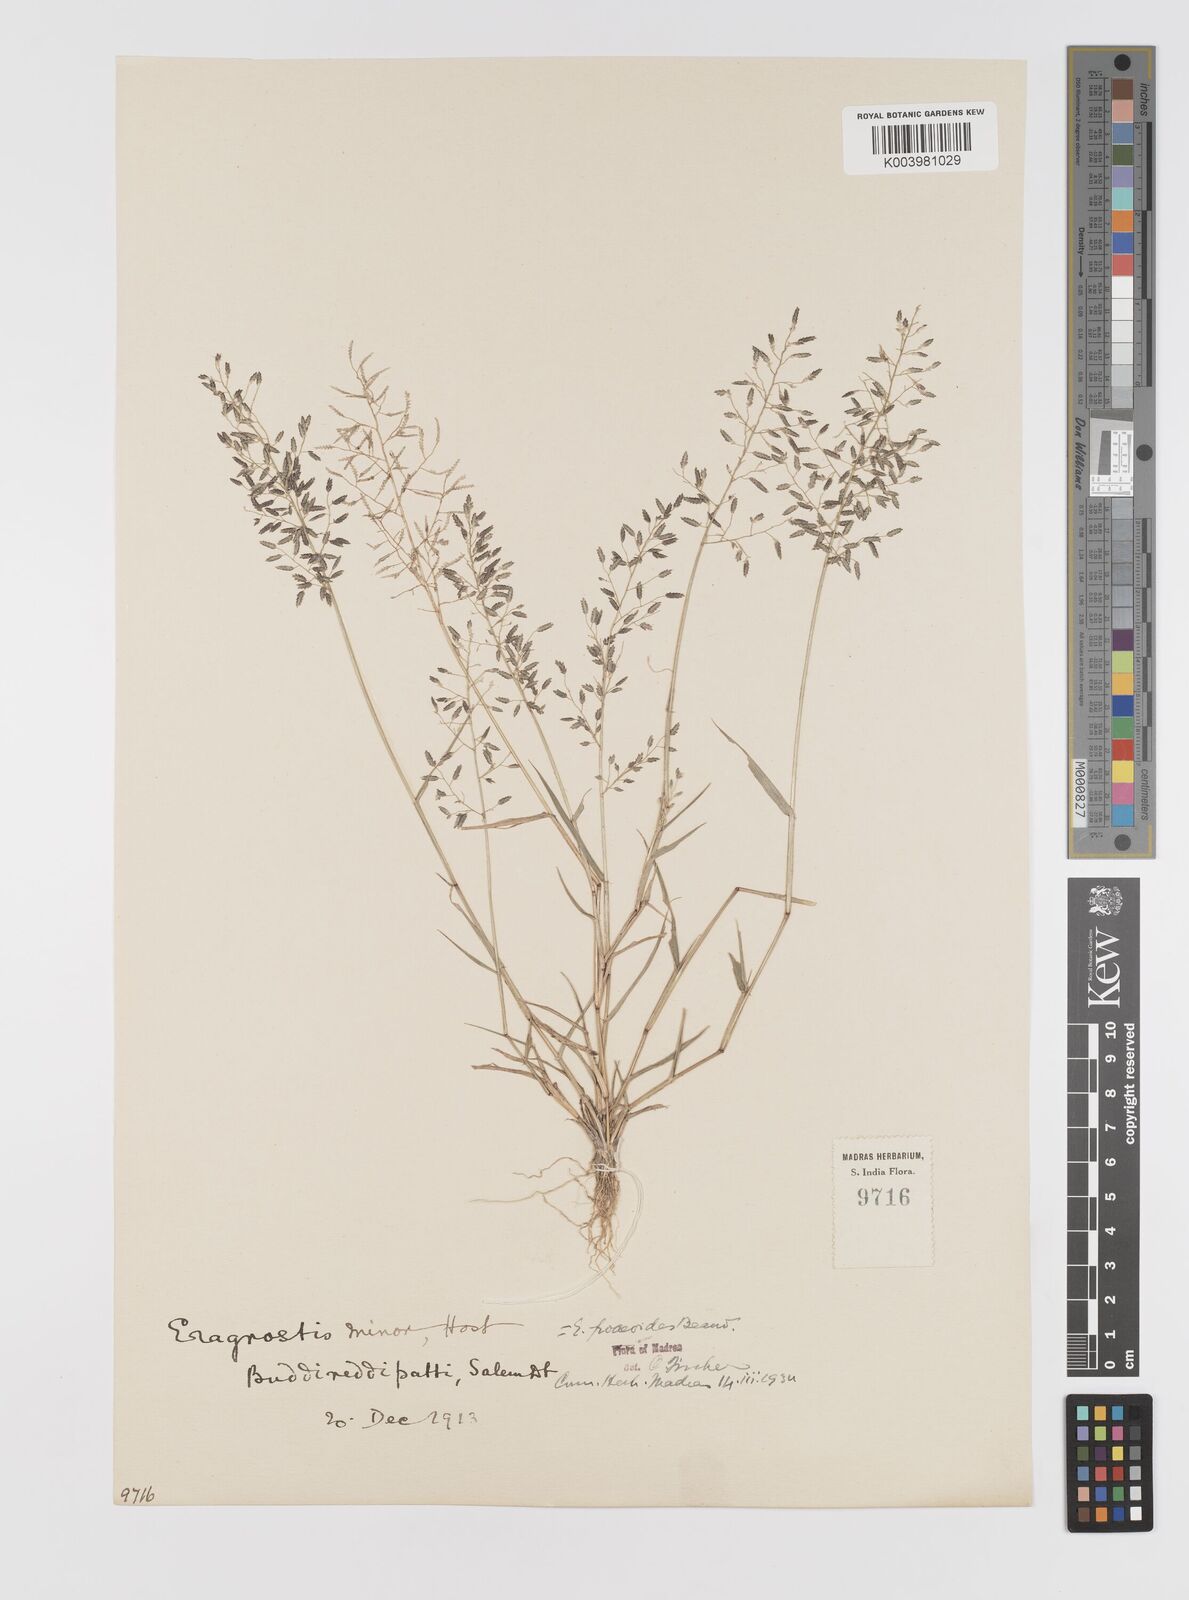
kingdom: Plantae
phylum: Tracheophyta
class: Liliopsida
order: Poales
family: Poaceae
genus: Eragrostis
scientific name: Eragrostis minor
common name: Small love-grass
